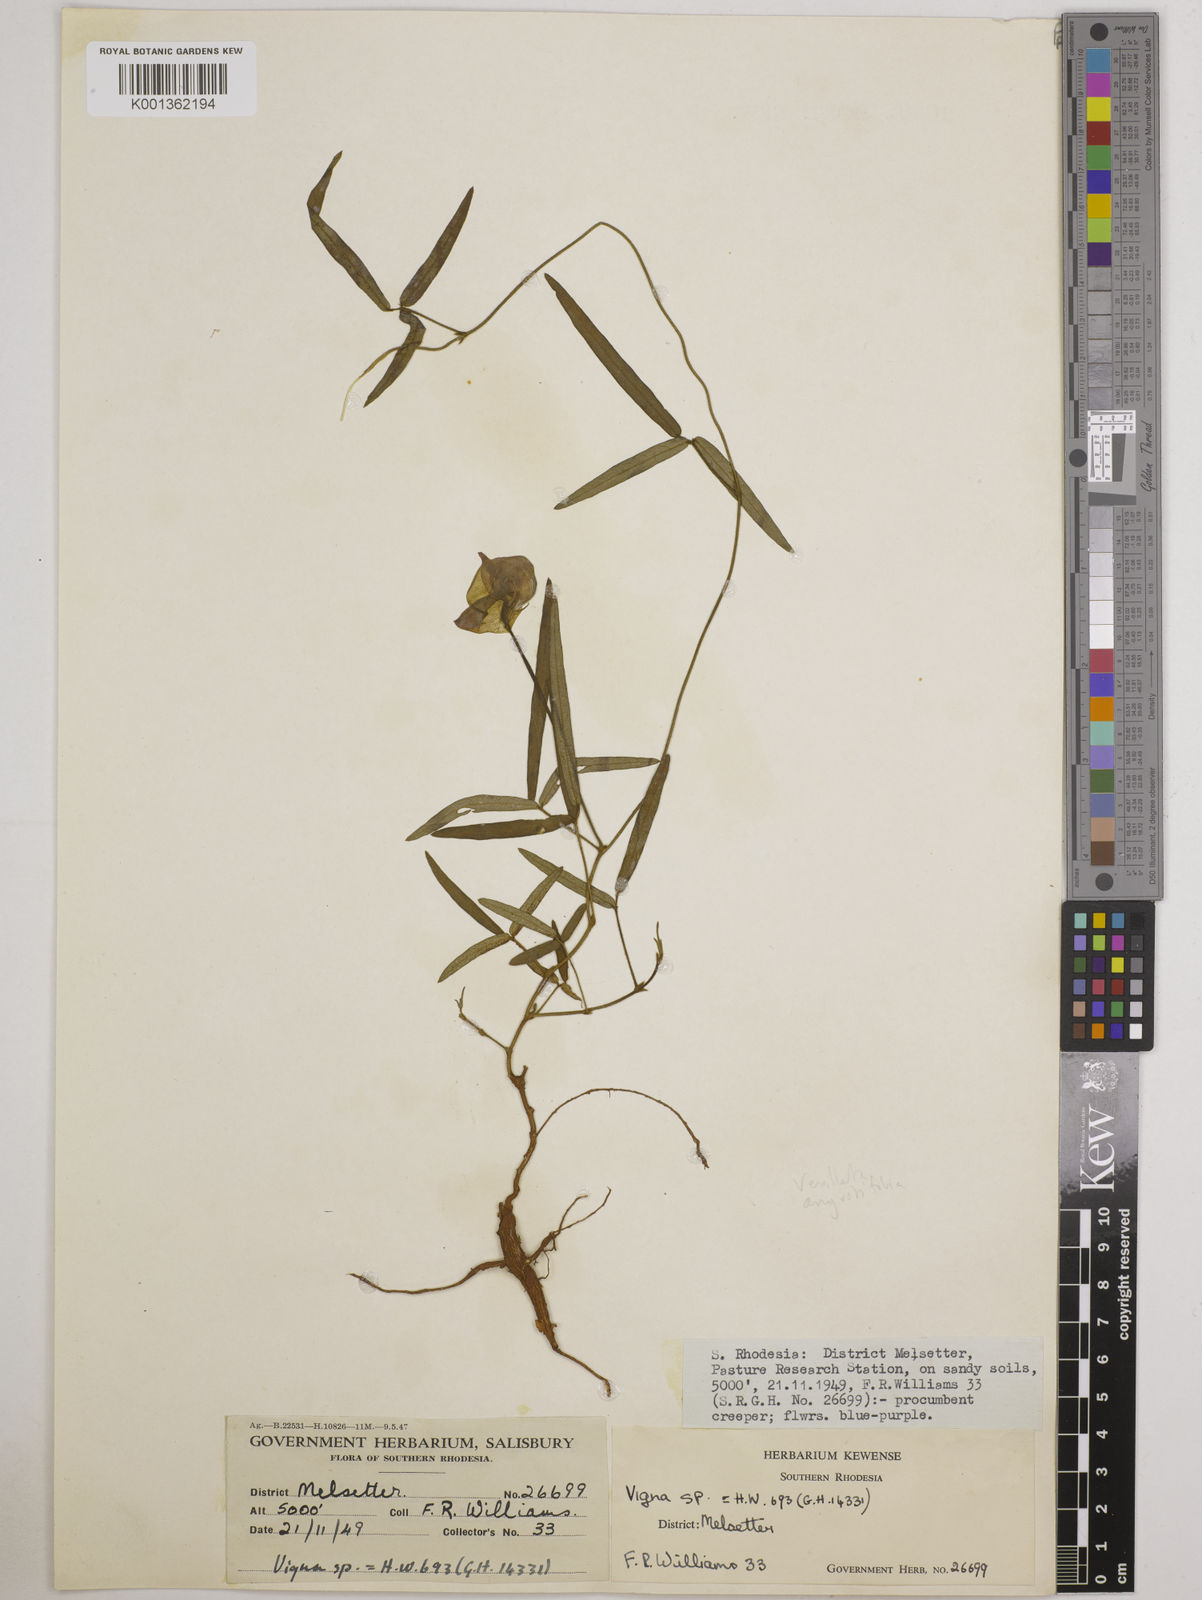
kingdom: Plantae
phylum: Tracheophyta
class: Magnoliopsida
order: Fabales
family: Fabaceae
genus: Vigna
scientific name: Vigna vexillata
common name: Zombi pea
